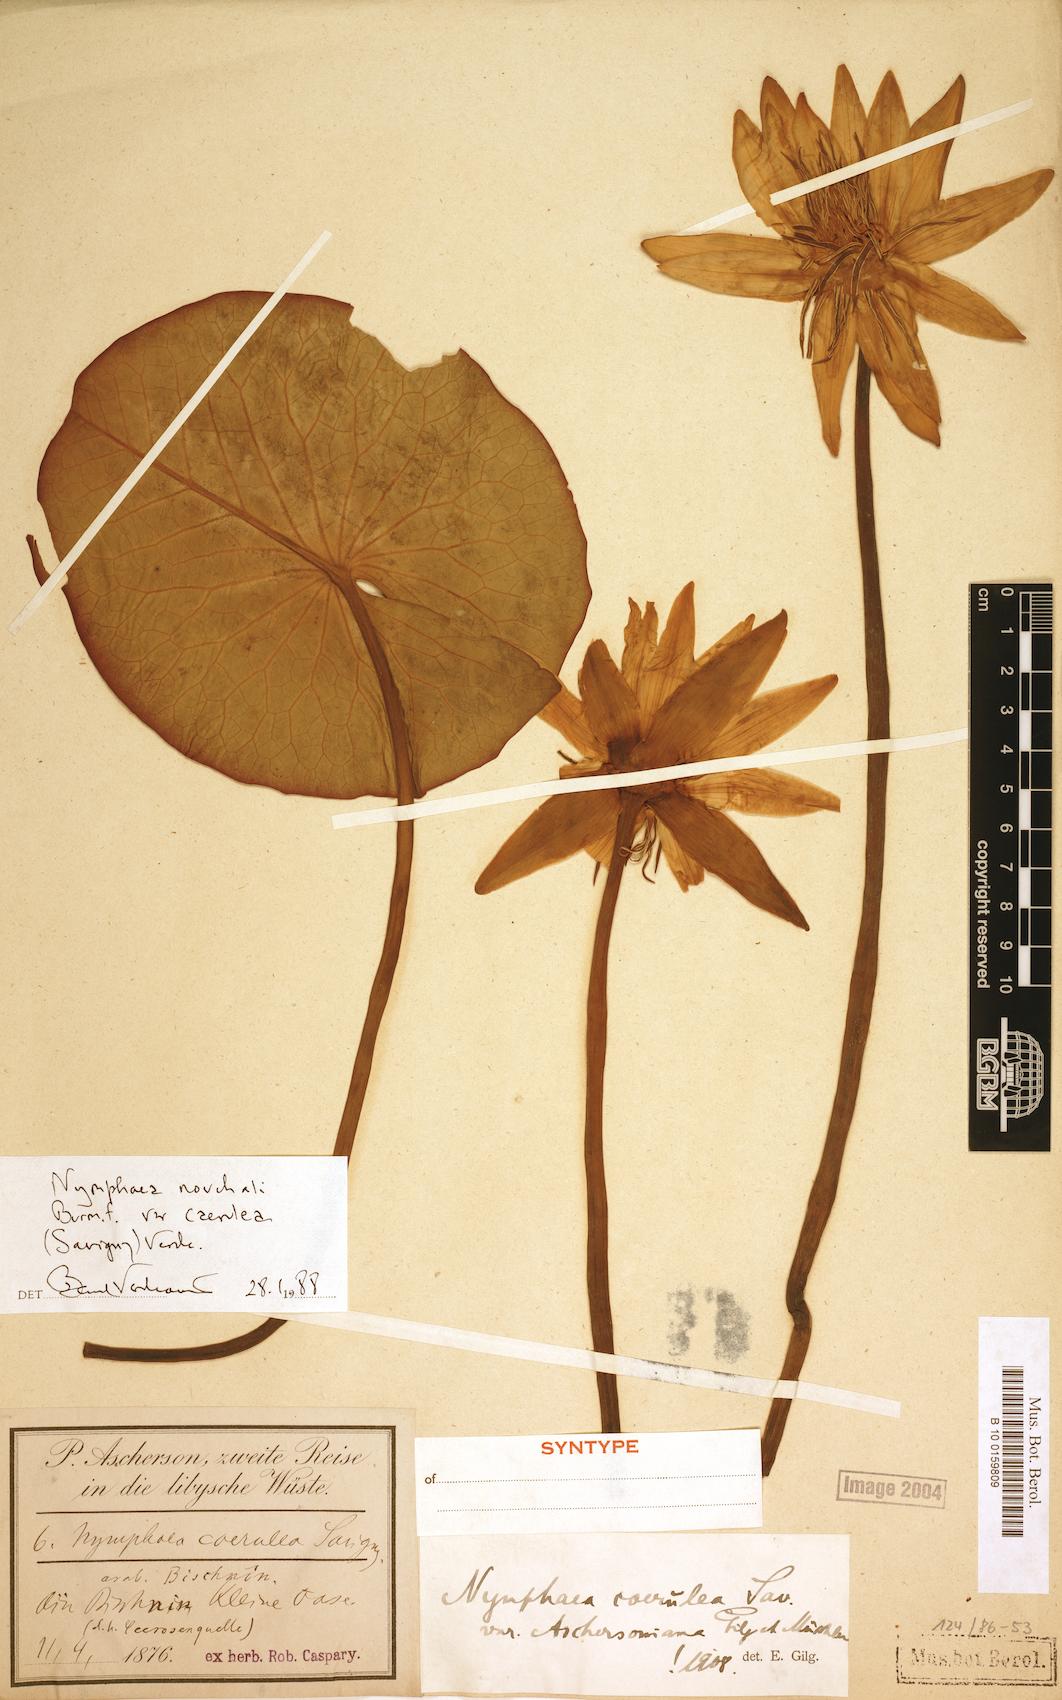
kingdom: Plantae
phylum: Tracheophyta
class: Magnoliopsida
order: Nymphaeales
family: Nymphaeaceae
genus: Nymphaea
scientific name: Nymphaea nouchali
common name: Blue lotus
